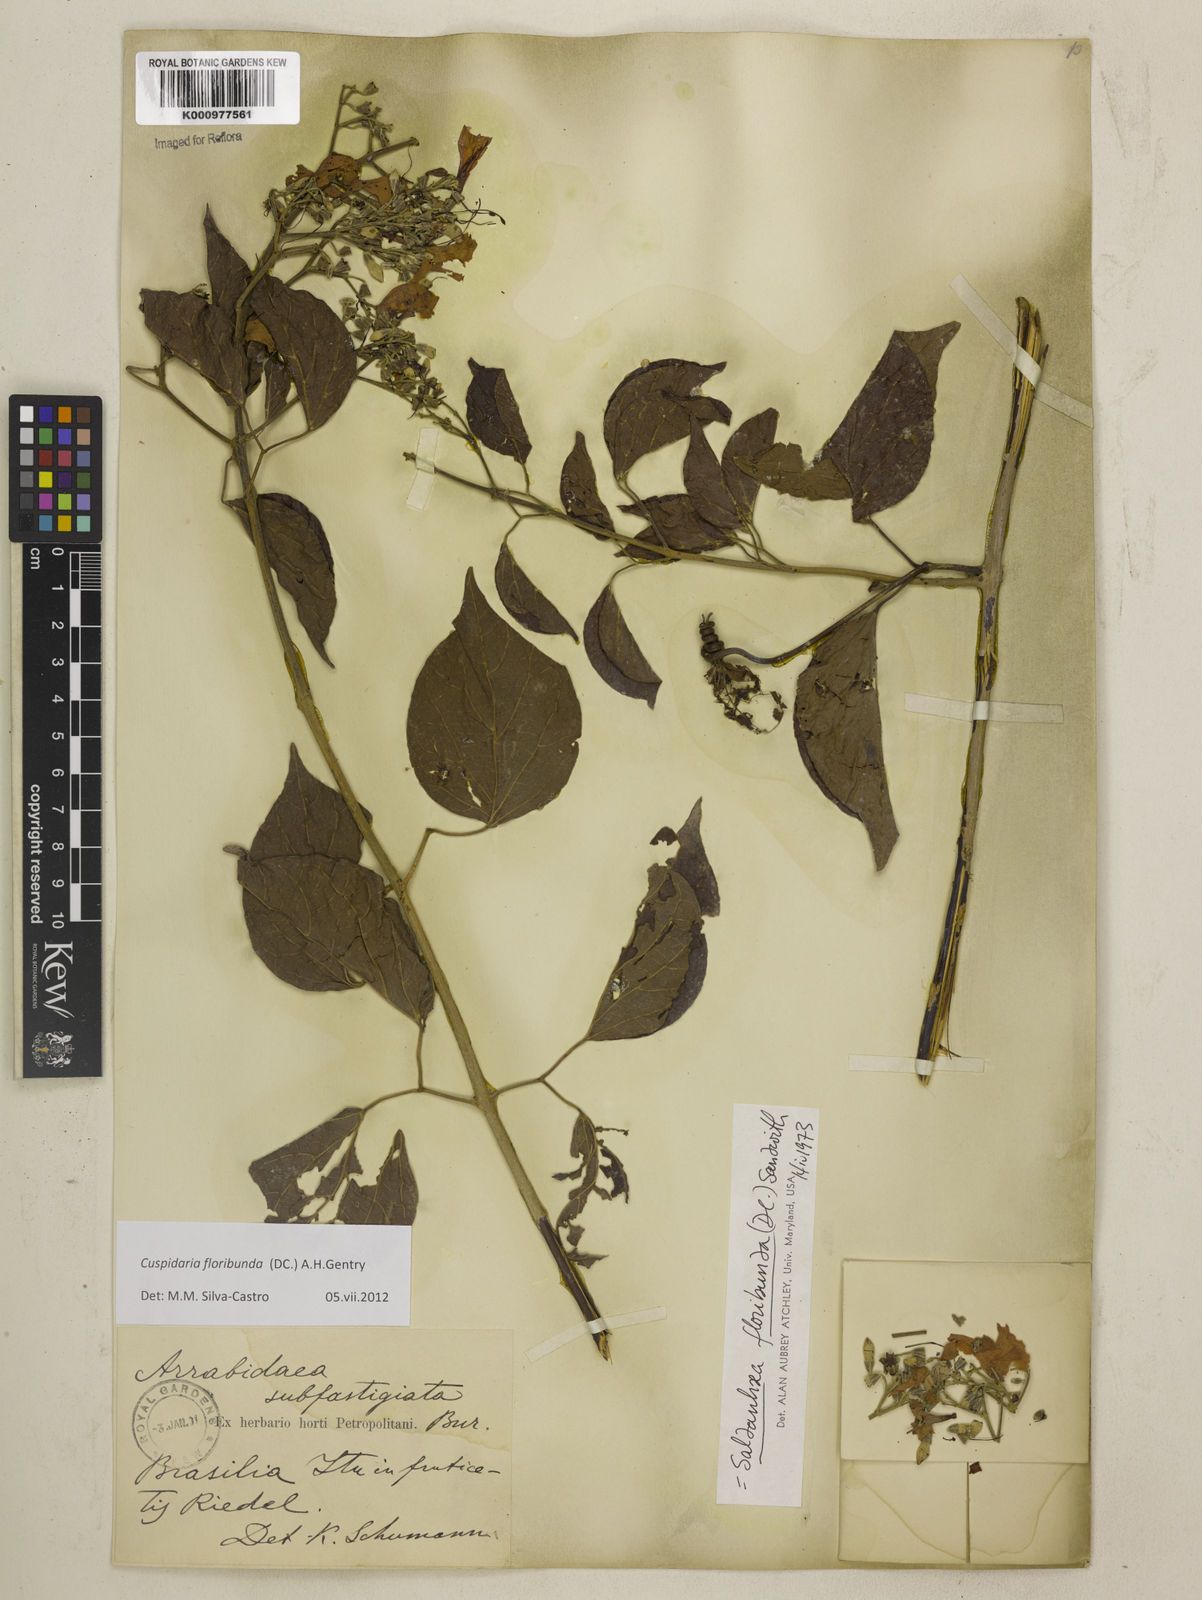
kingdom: Plantae
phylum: Tracheophyta
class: Magnoliopsida
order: Lamiales
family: Bignoniaceae
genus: Cuspidaria
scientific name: Cuspidaria floribunda
